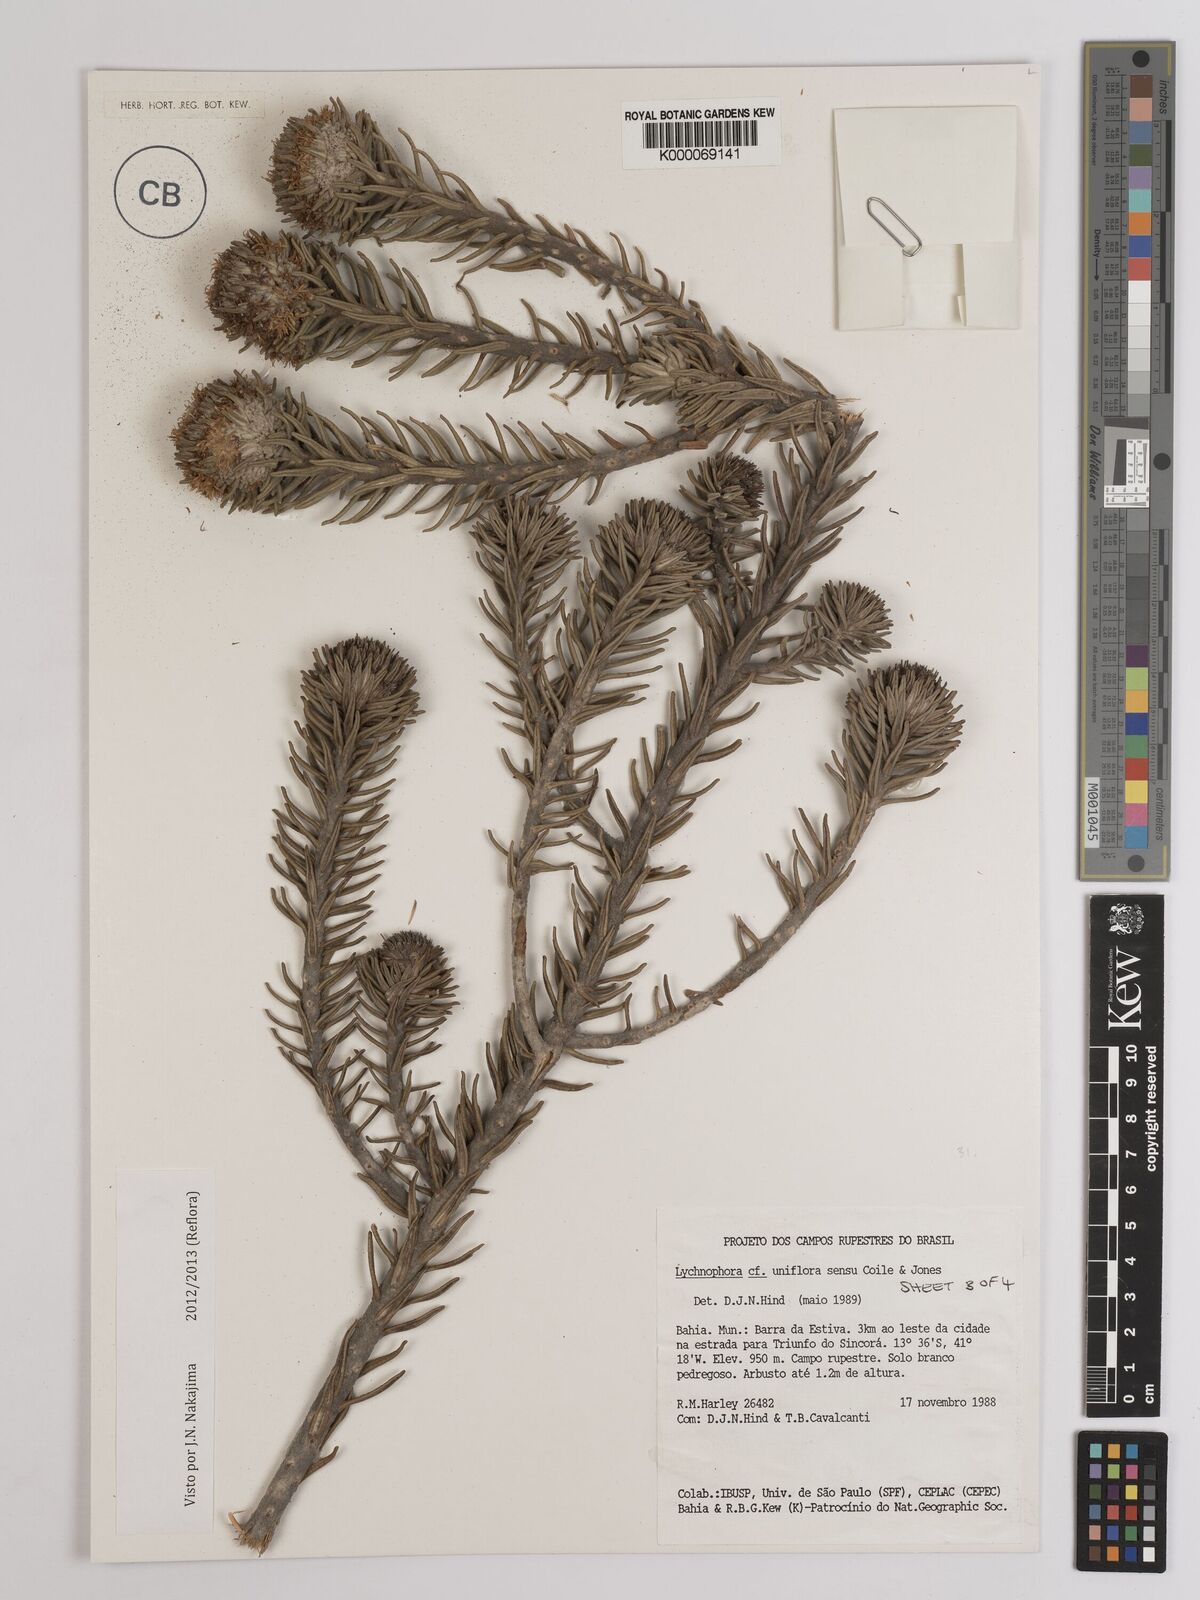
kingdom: Plantae
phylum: Tracheophyta
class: Magnoliopsida
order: Asterales
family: Asteraceae
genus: Lychnophora
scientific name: Lychnophora uniflora
